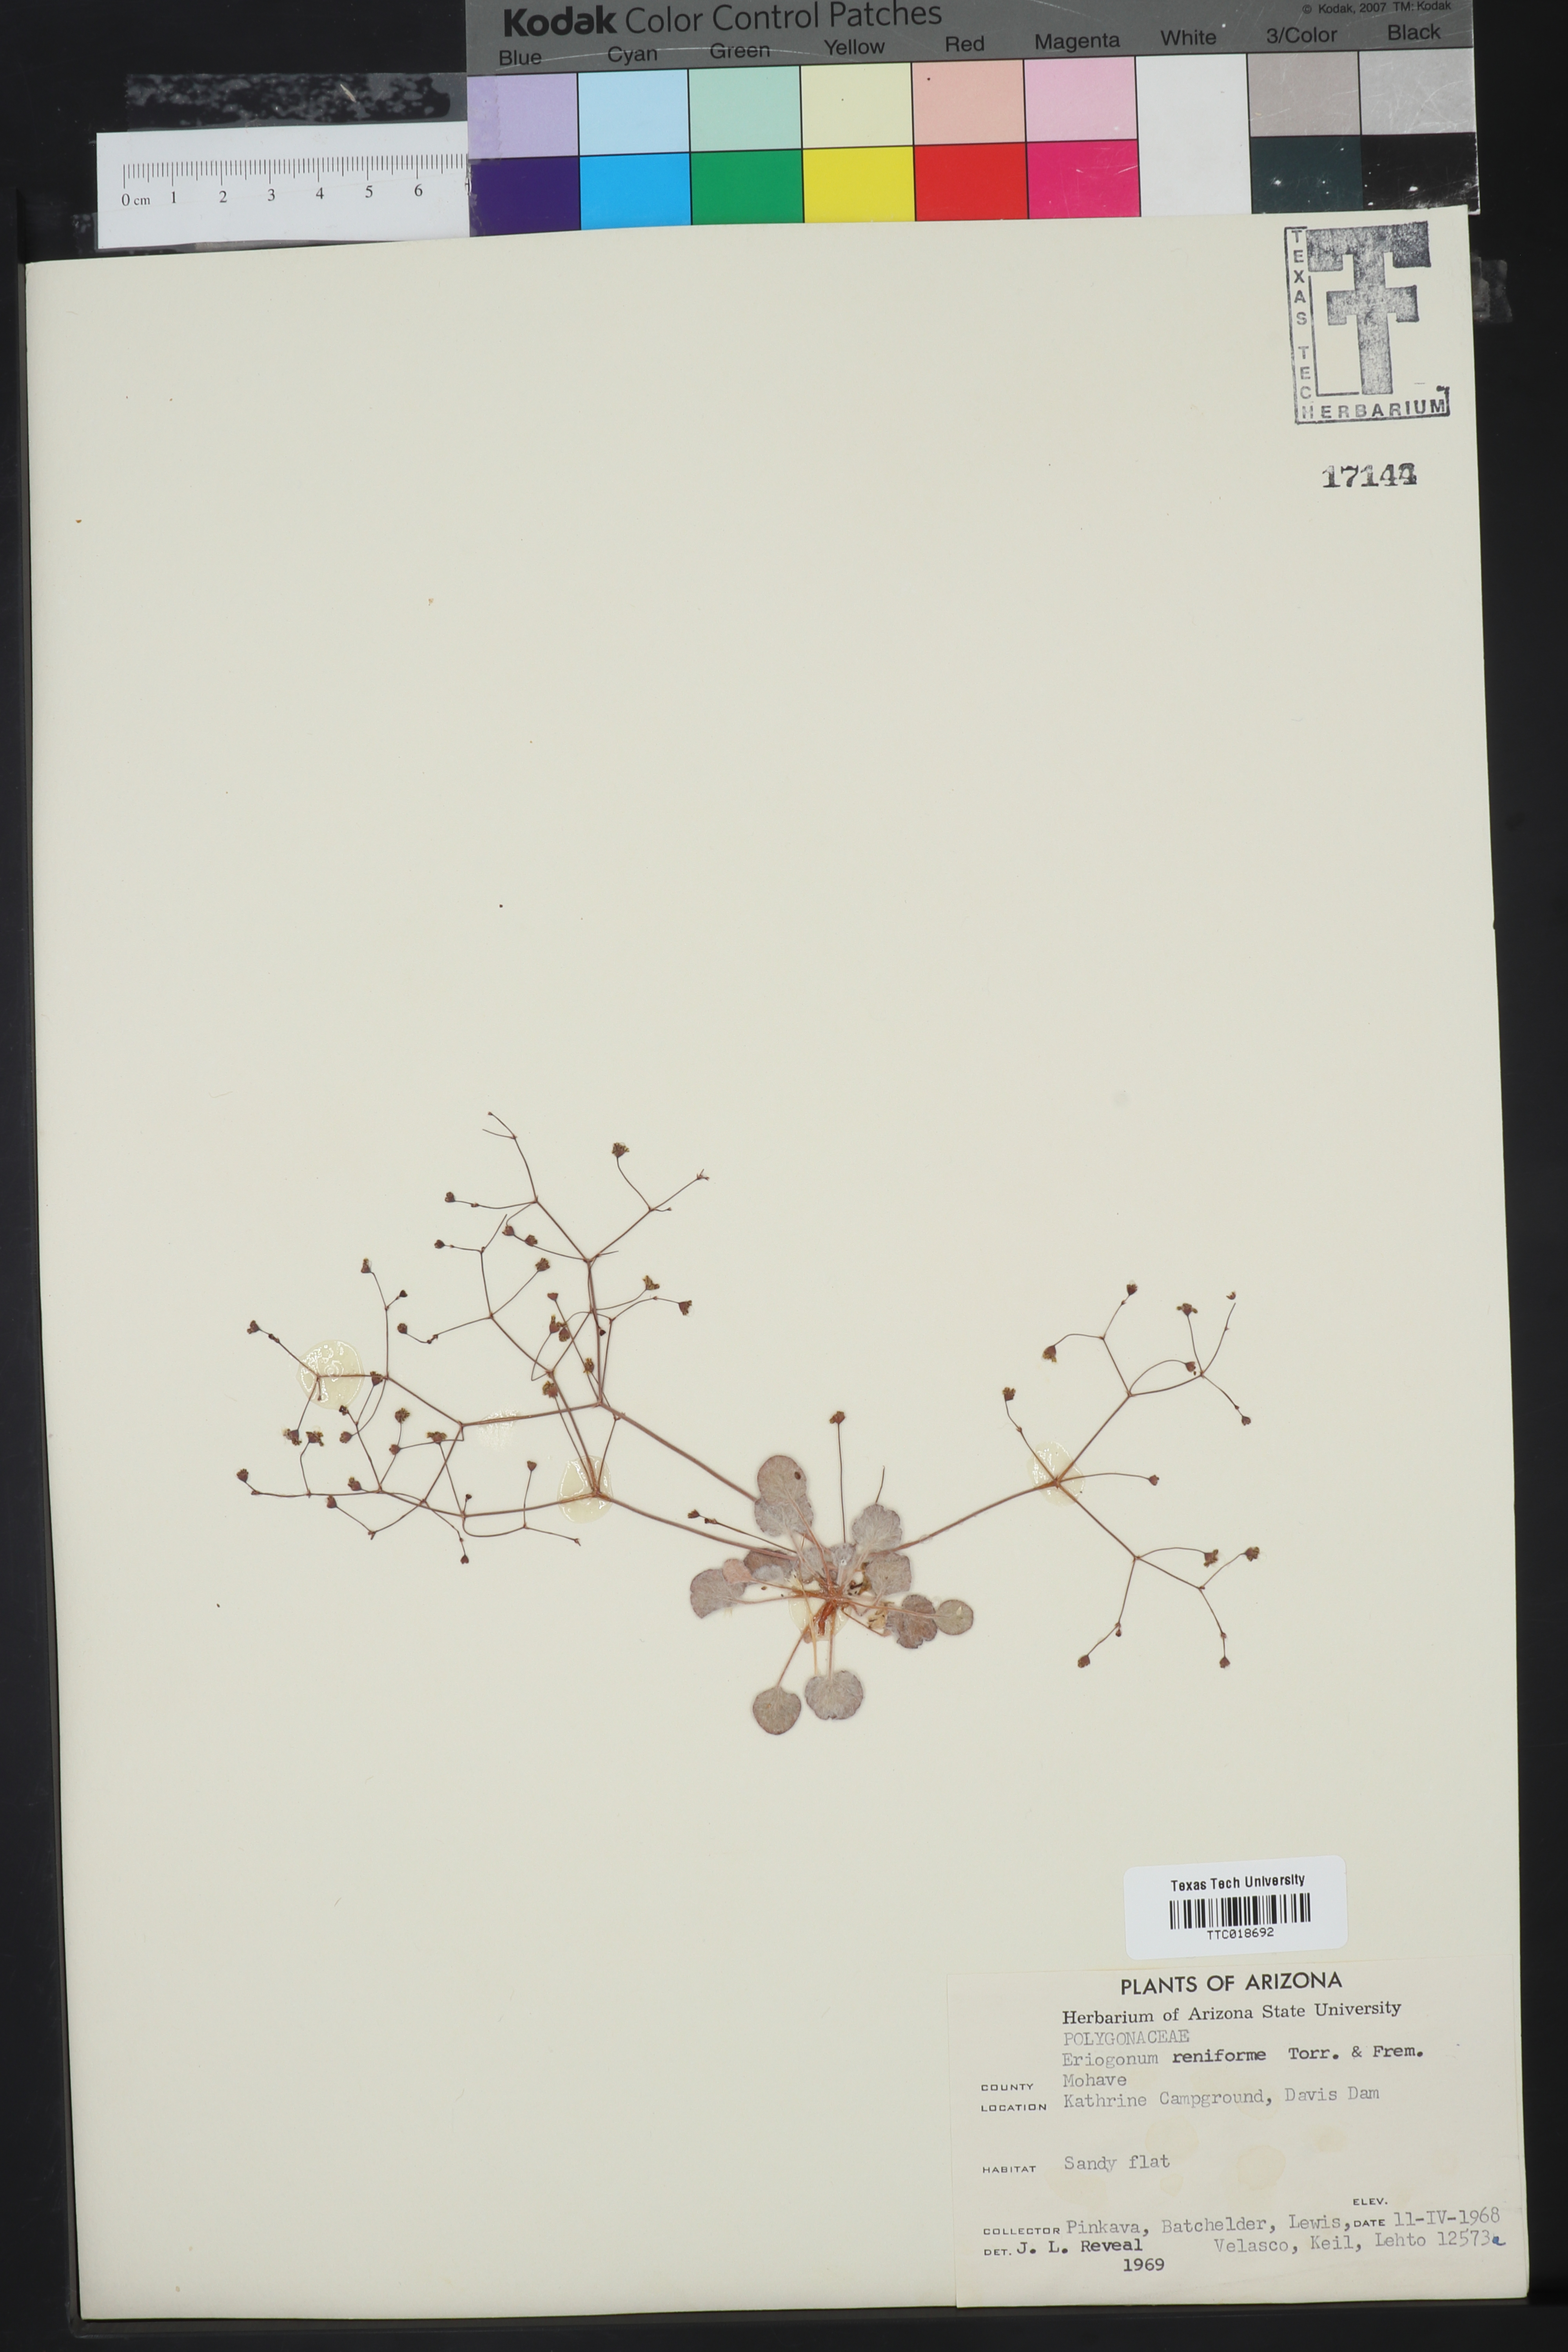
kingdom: Plantae
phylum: Tracheophyta
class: Magnoliopsida
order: Caryophyllales
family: Polygonaceae
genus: Eriogonum
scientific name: Eriogonum reniforme
